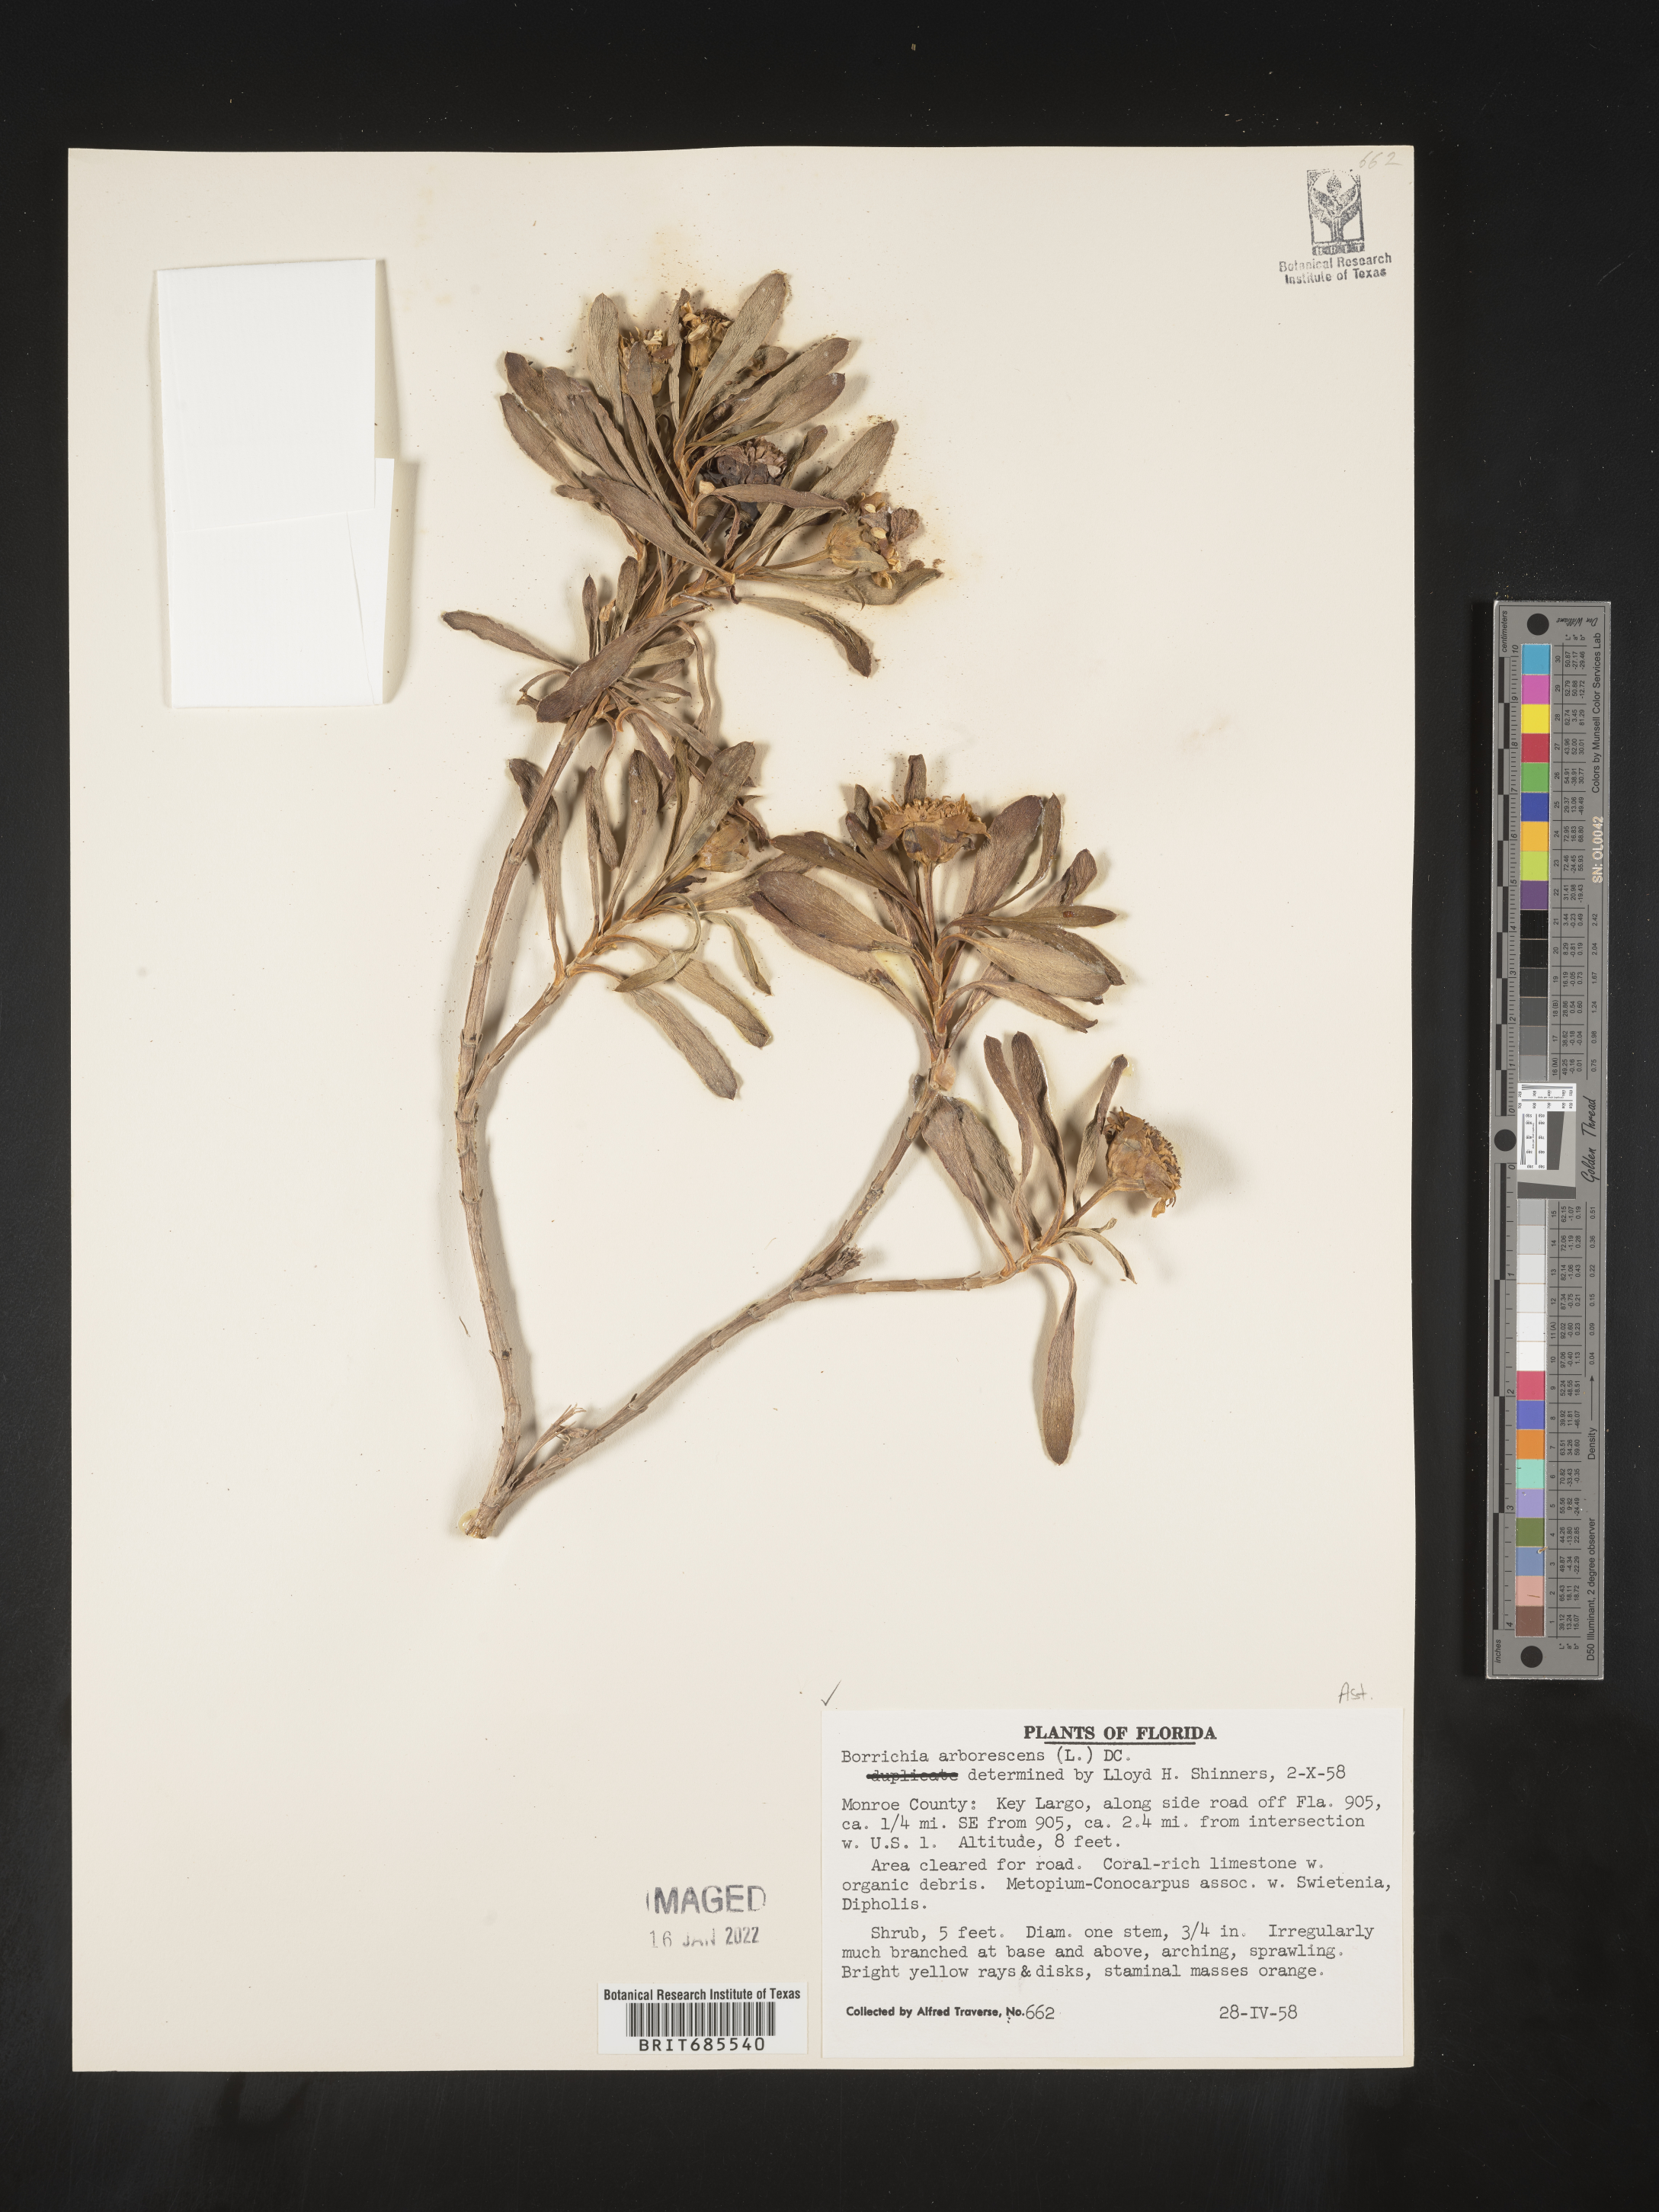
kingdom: Plantae
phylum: Tracheophyta
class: Magnoliopsida
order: Asterales
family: Asteraceae
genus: Borrichia
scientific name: Borrichia arborescens
